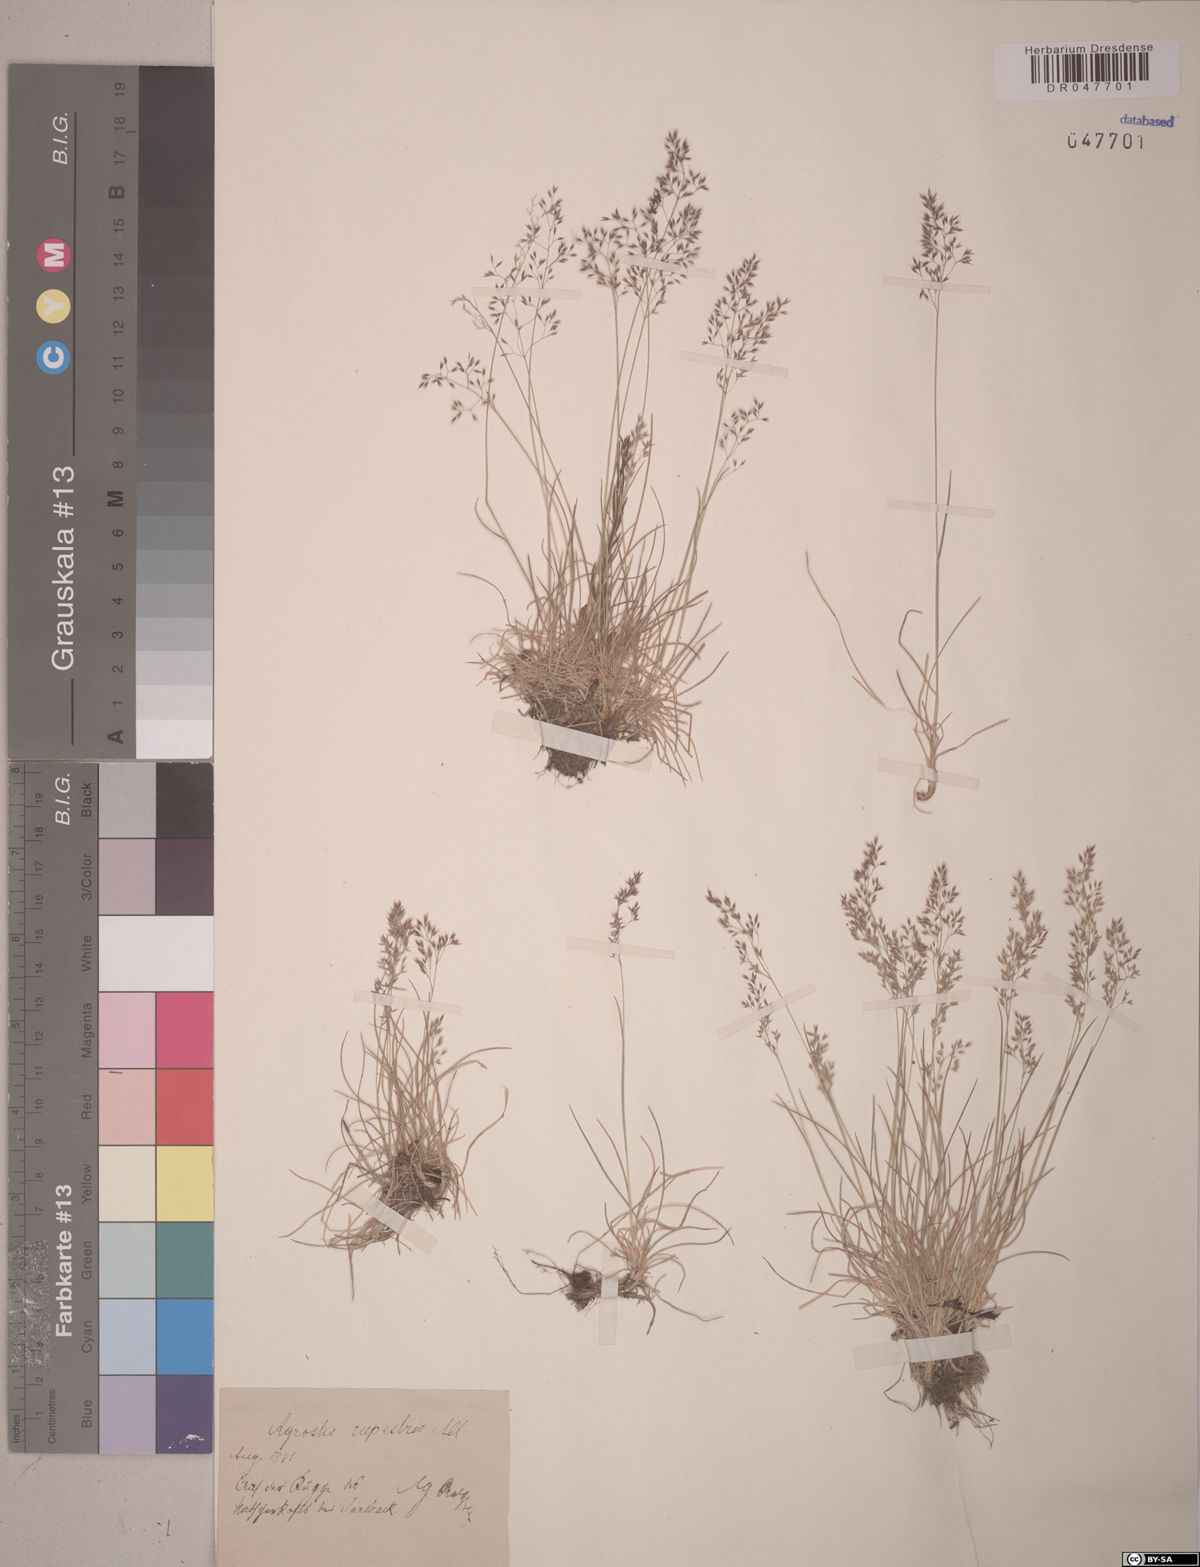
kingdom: Plantae
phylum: Tracheophyta
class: Liliopsida
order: Poales
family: Poaceae
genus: Agrostis
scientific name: Agrostis rupestris
